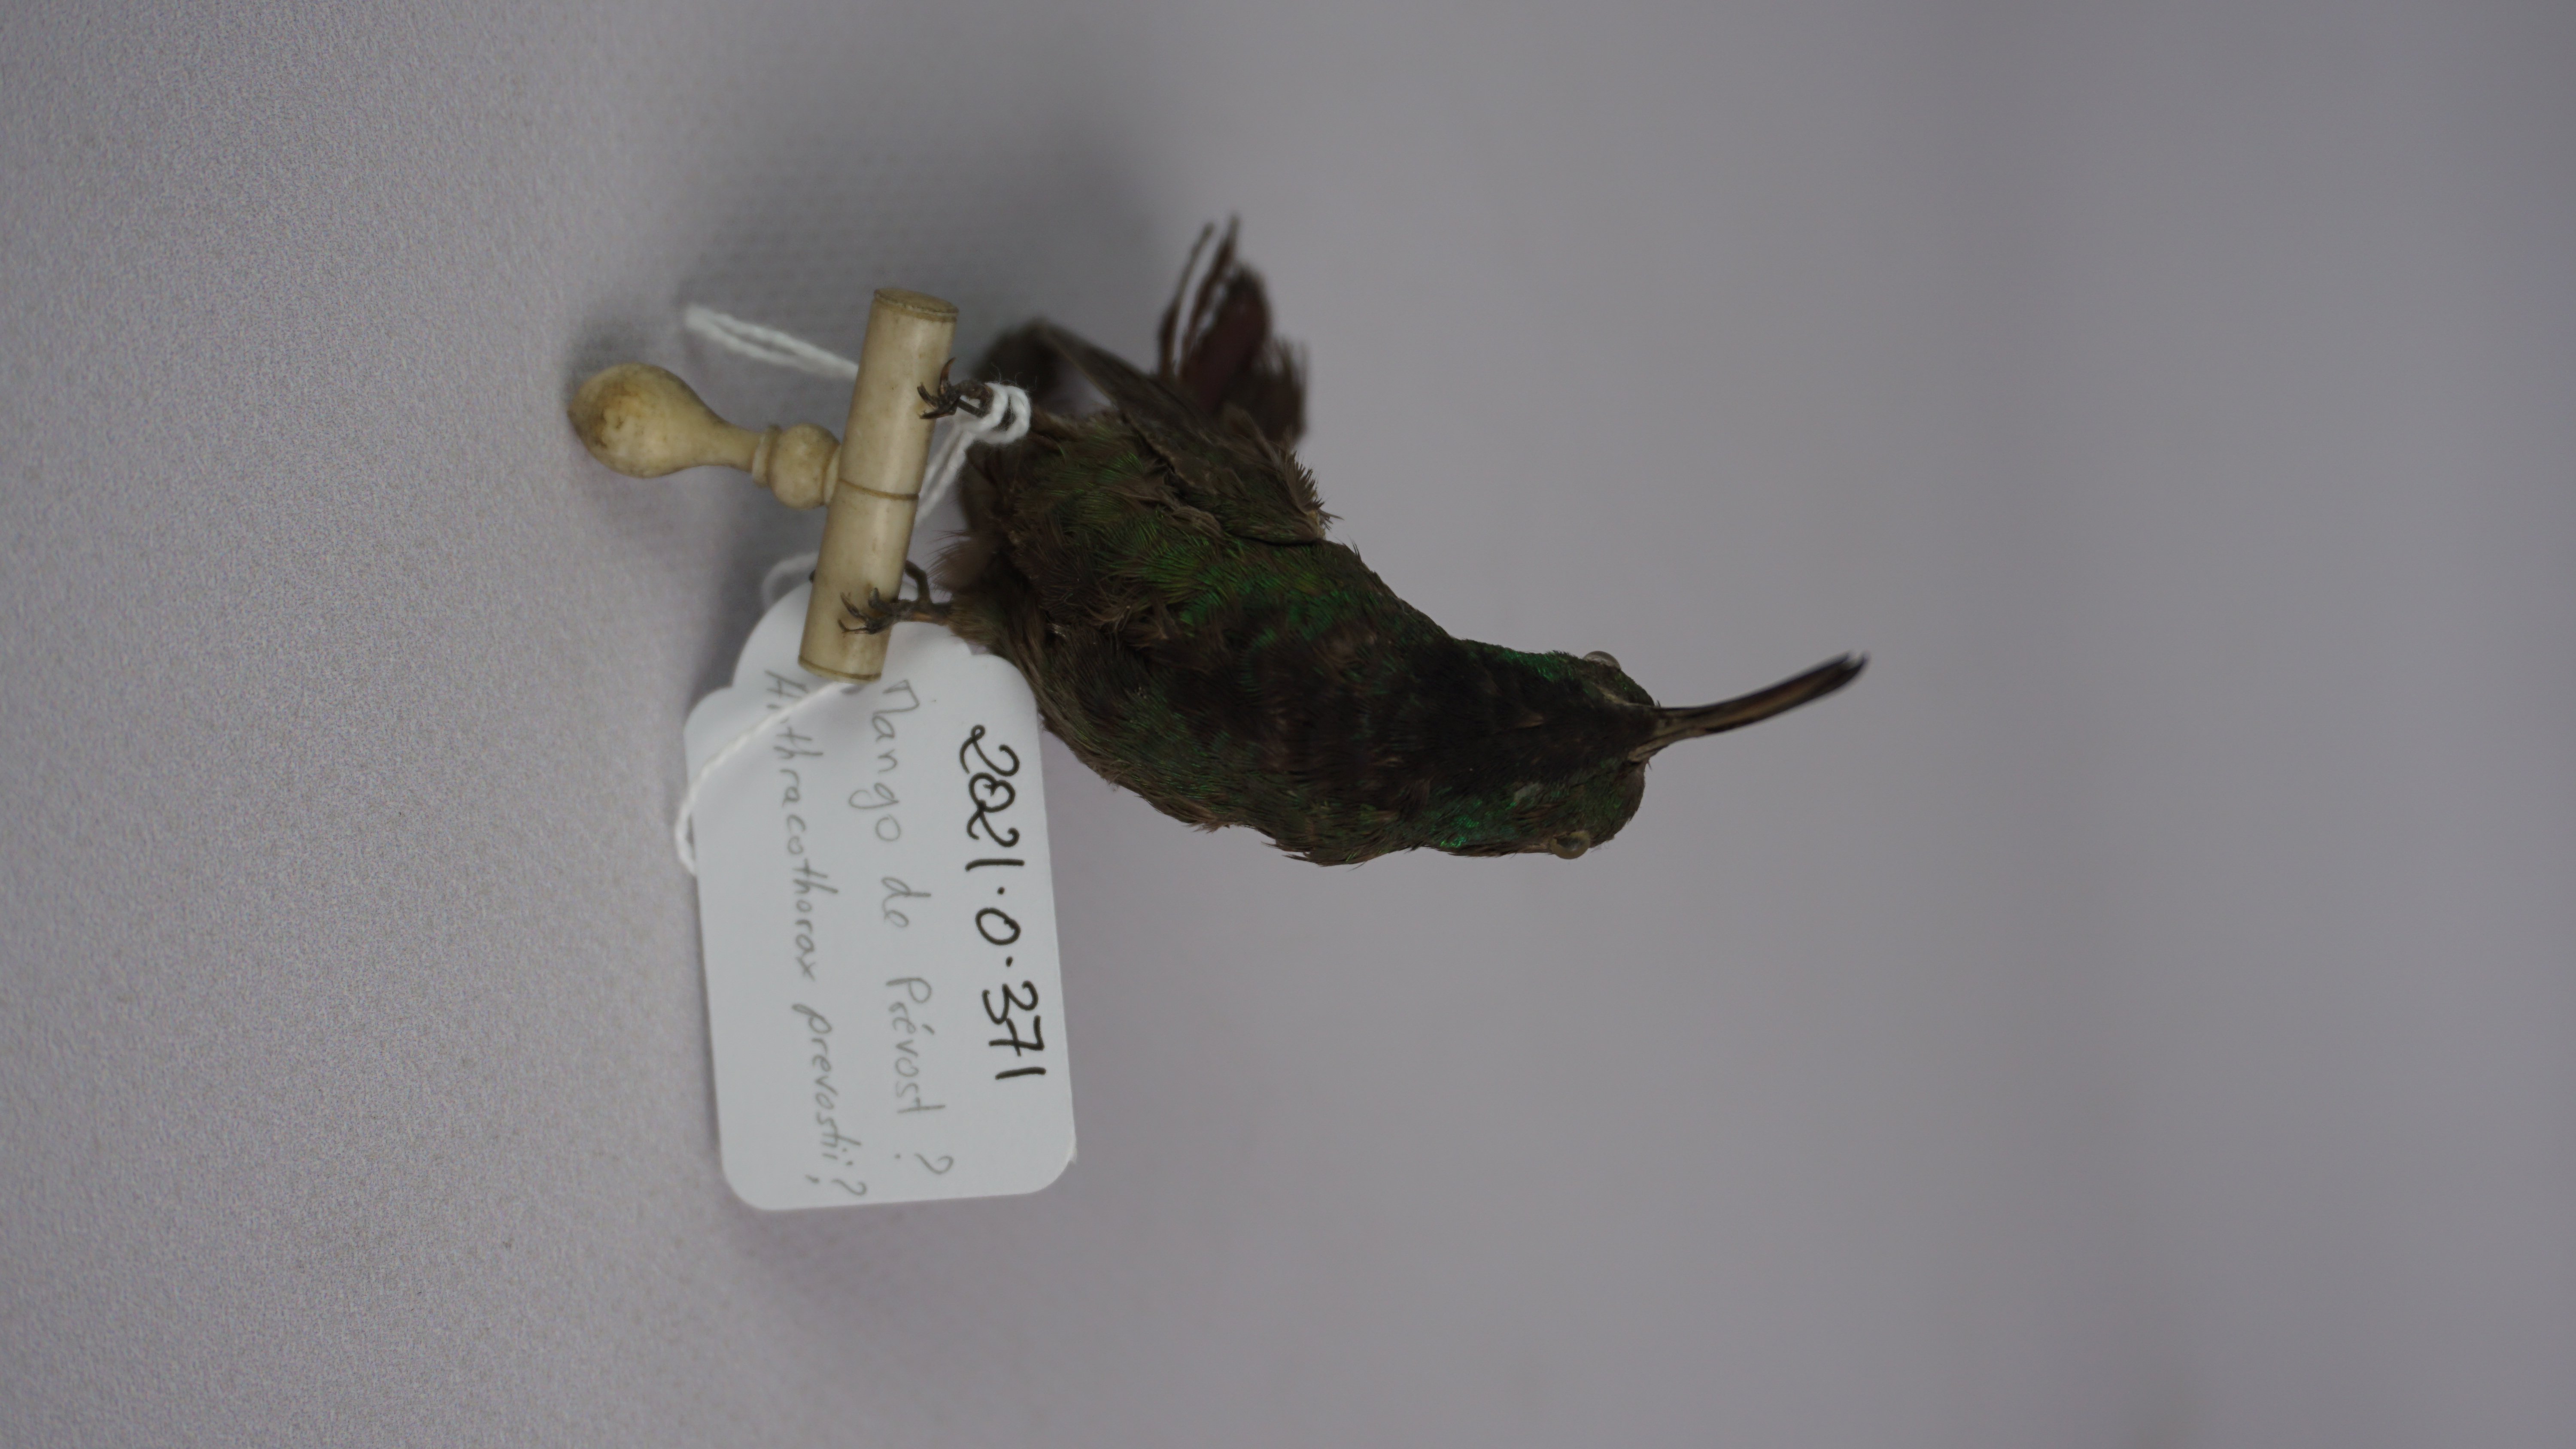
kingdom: Animalia
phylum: Chordata
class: Aves
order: Apodiformes
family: Trochilidae
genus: Anthracothorax
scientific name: Anthracothorax prevostii
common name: Green-breasted mango
